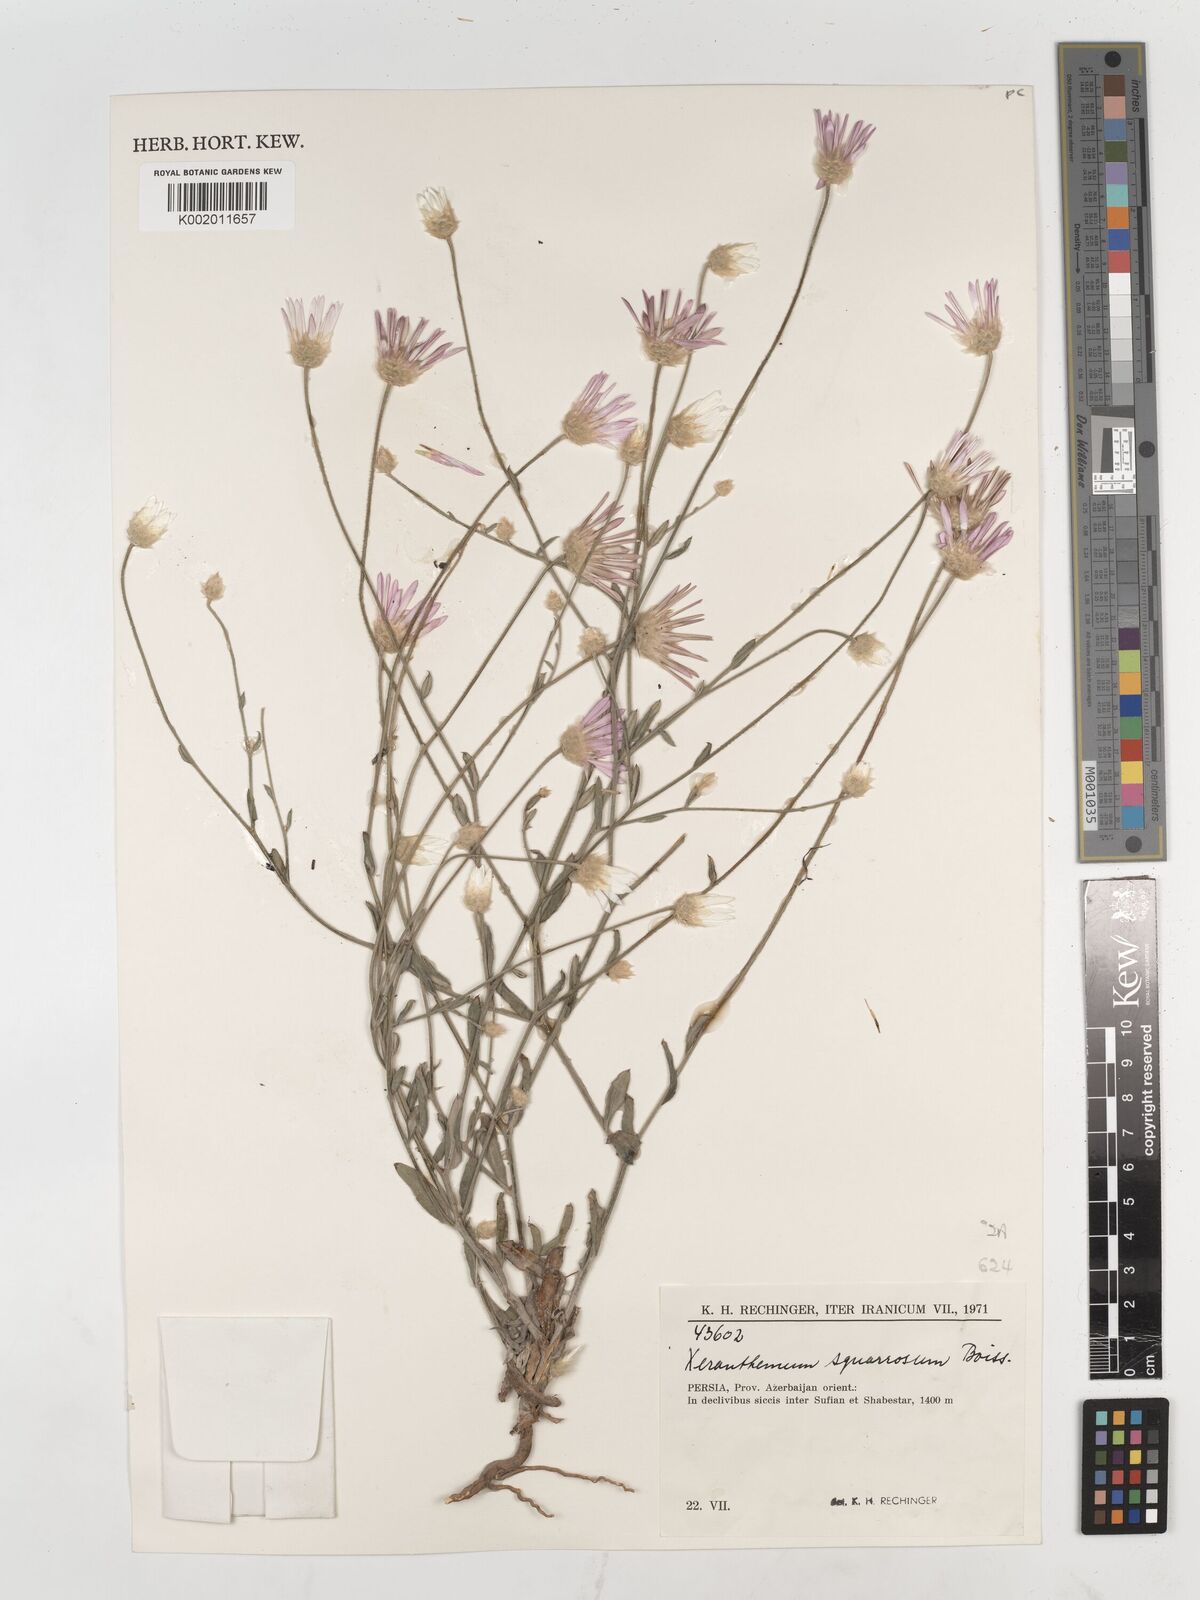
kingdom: Plantae
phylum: Tracheophyta
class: Magnoliopsida
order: Asterales
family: Asteraceae
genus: Xeranthemum
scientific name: Xeranthemum squarrosum
